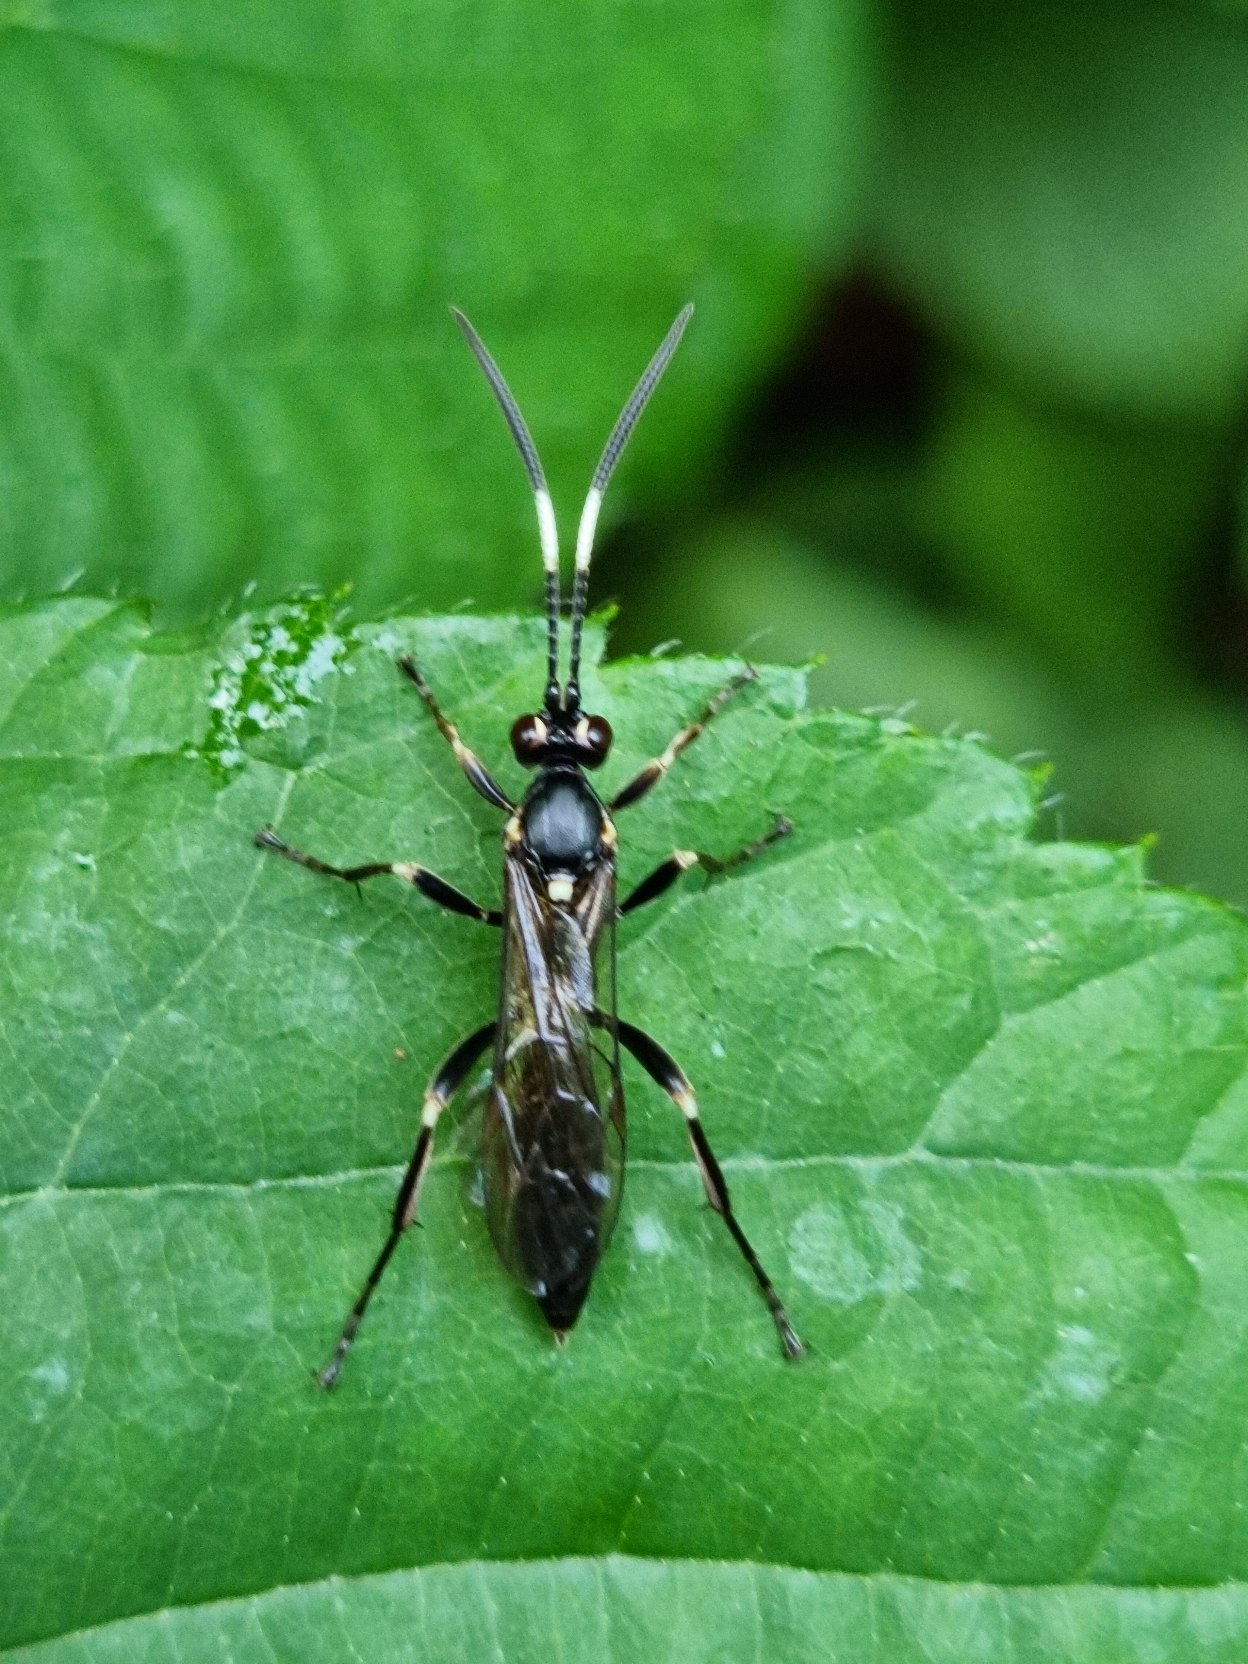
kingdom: Animalia
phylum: Arthropoda
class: Insecta
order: Hymenoptera
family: Ichneumonidae
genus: Gareila
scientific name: Gareila nivata
